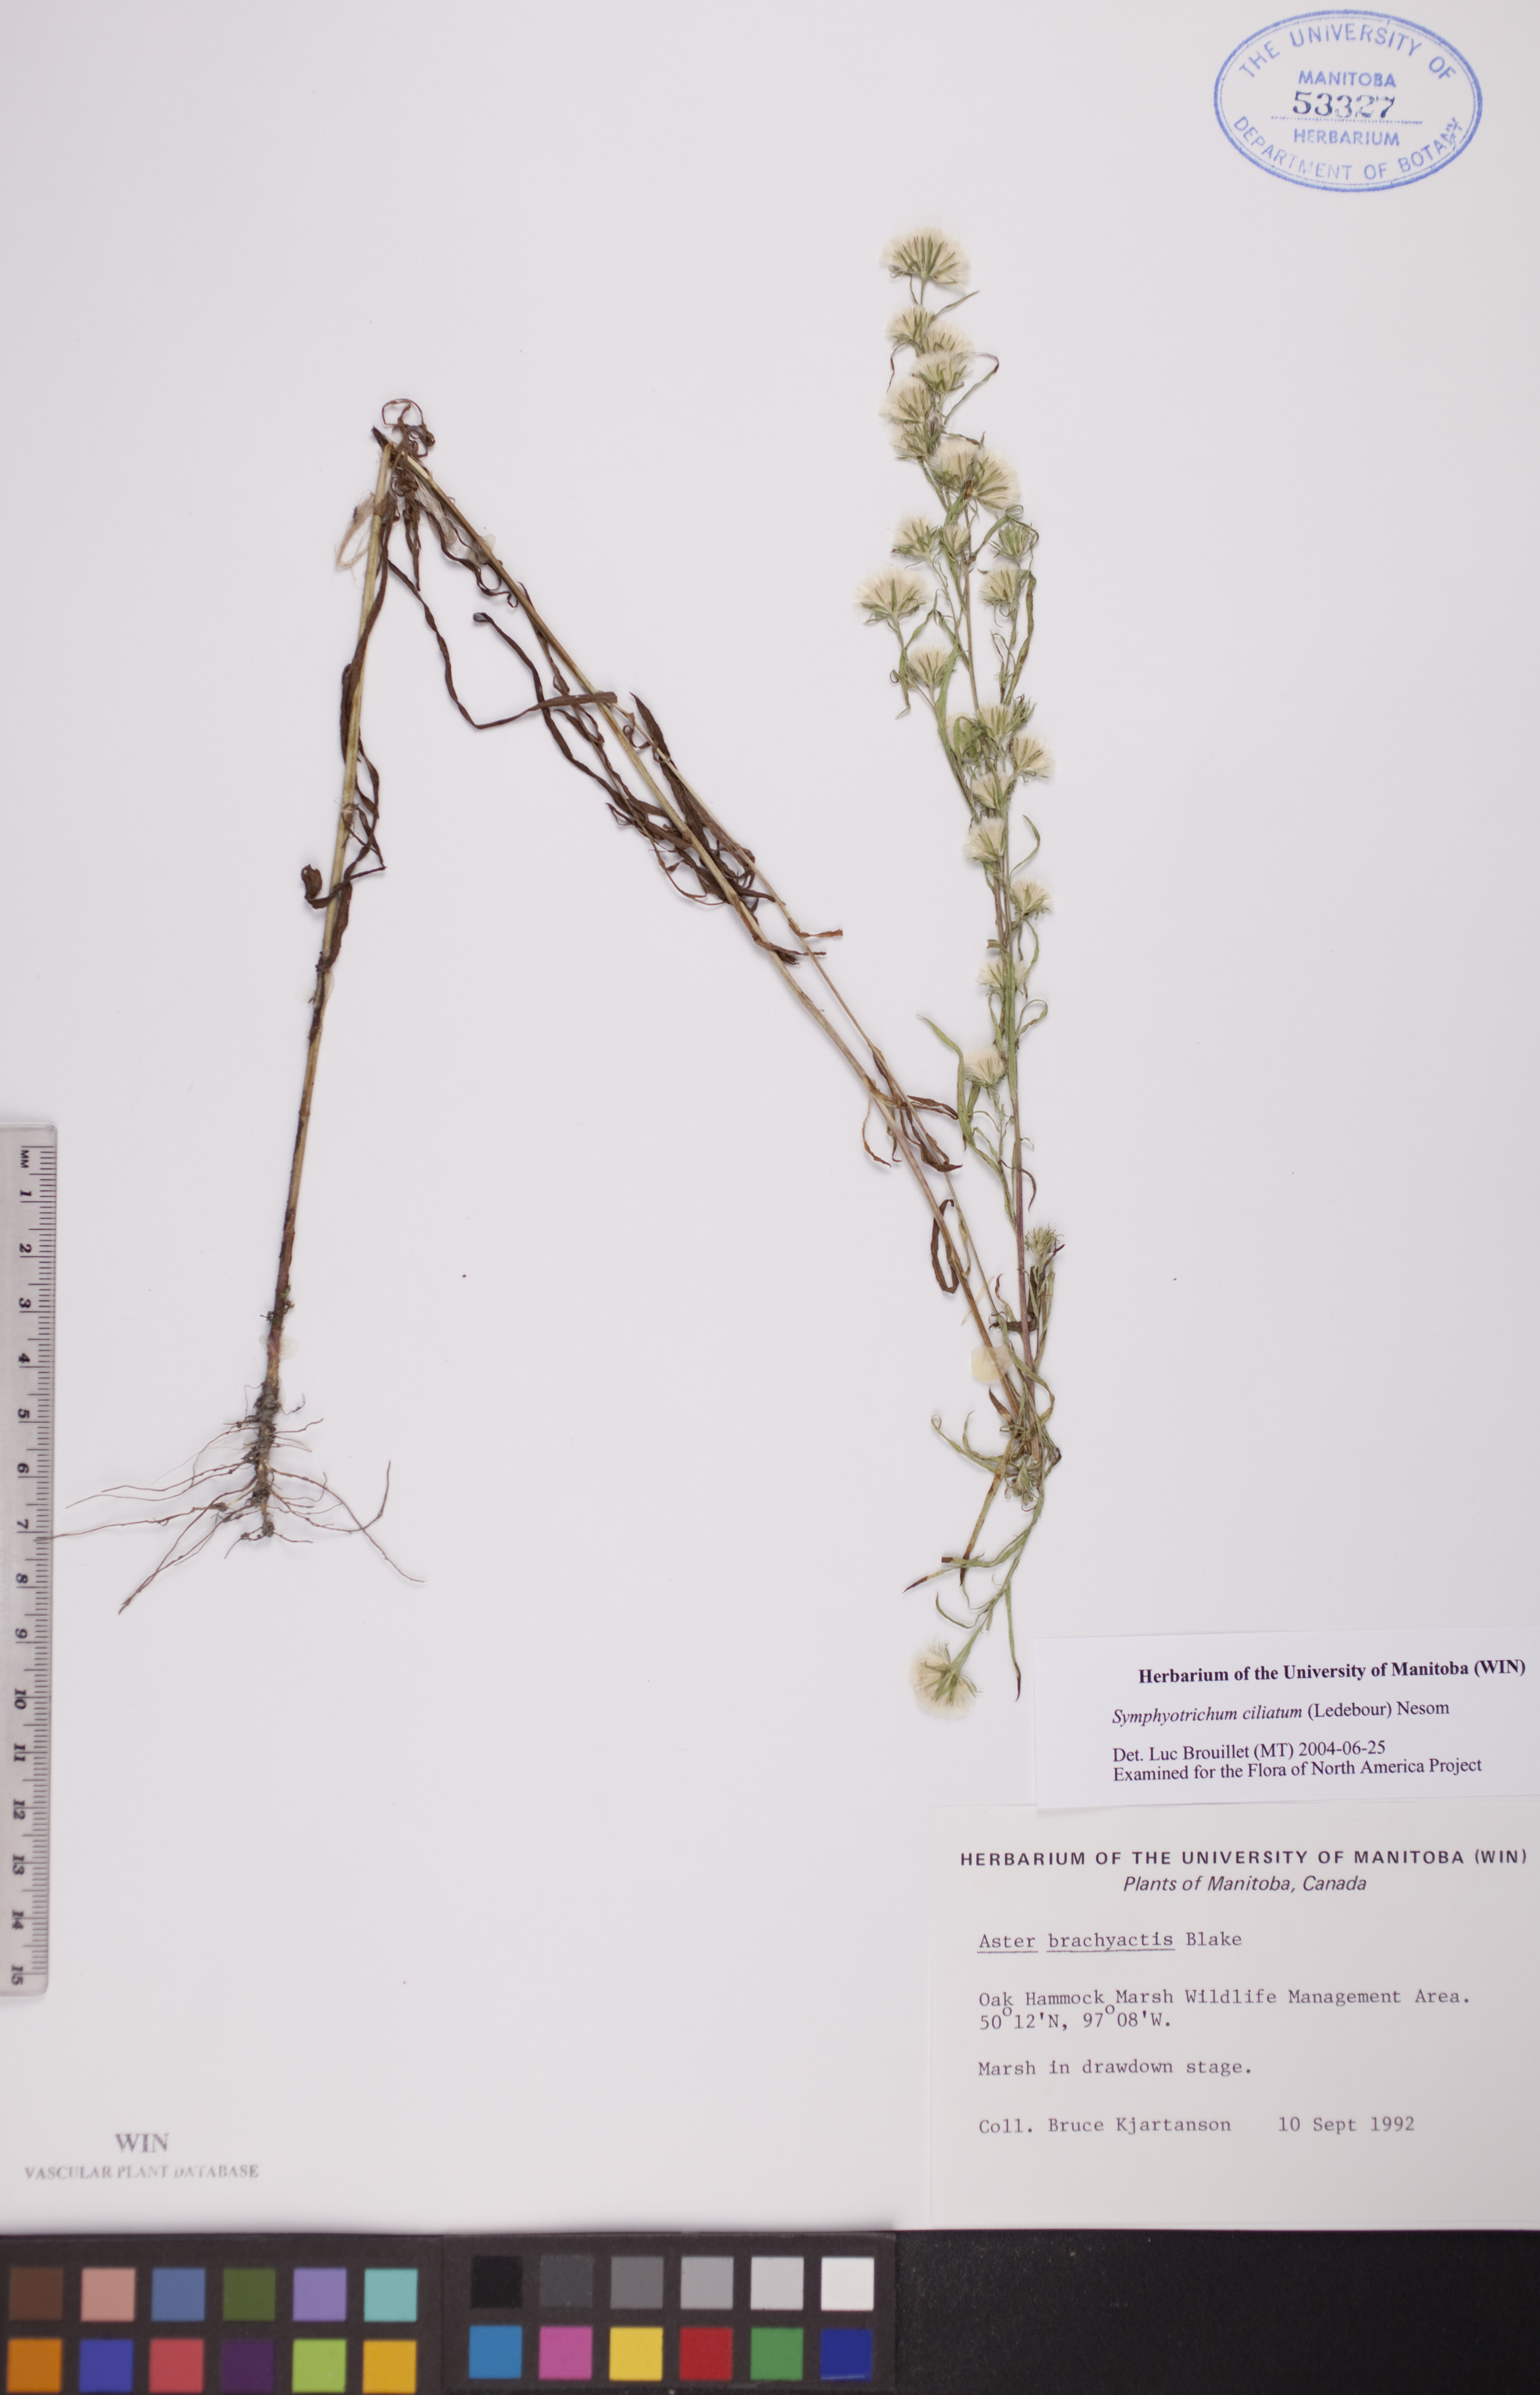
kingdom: Plantae
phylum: Tracheophyta
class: Magnoliopsida
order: Asterales
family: Asteraceae
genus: Symphyotrichum
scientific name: Symphyotrichum ciliatum
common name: Rayless annual aster
